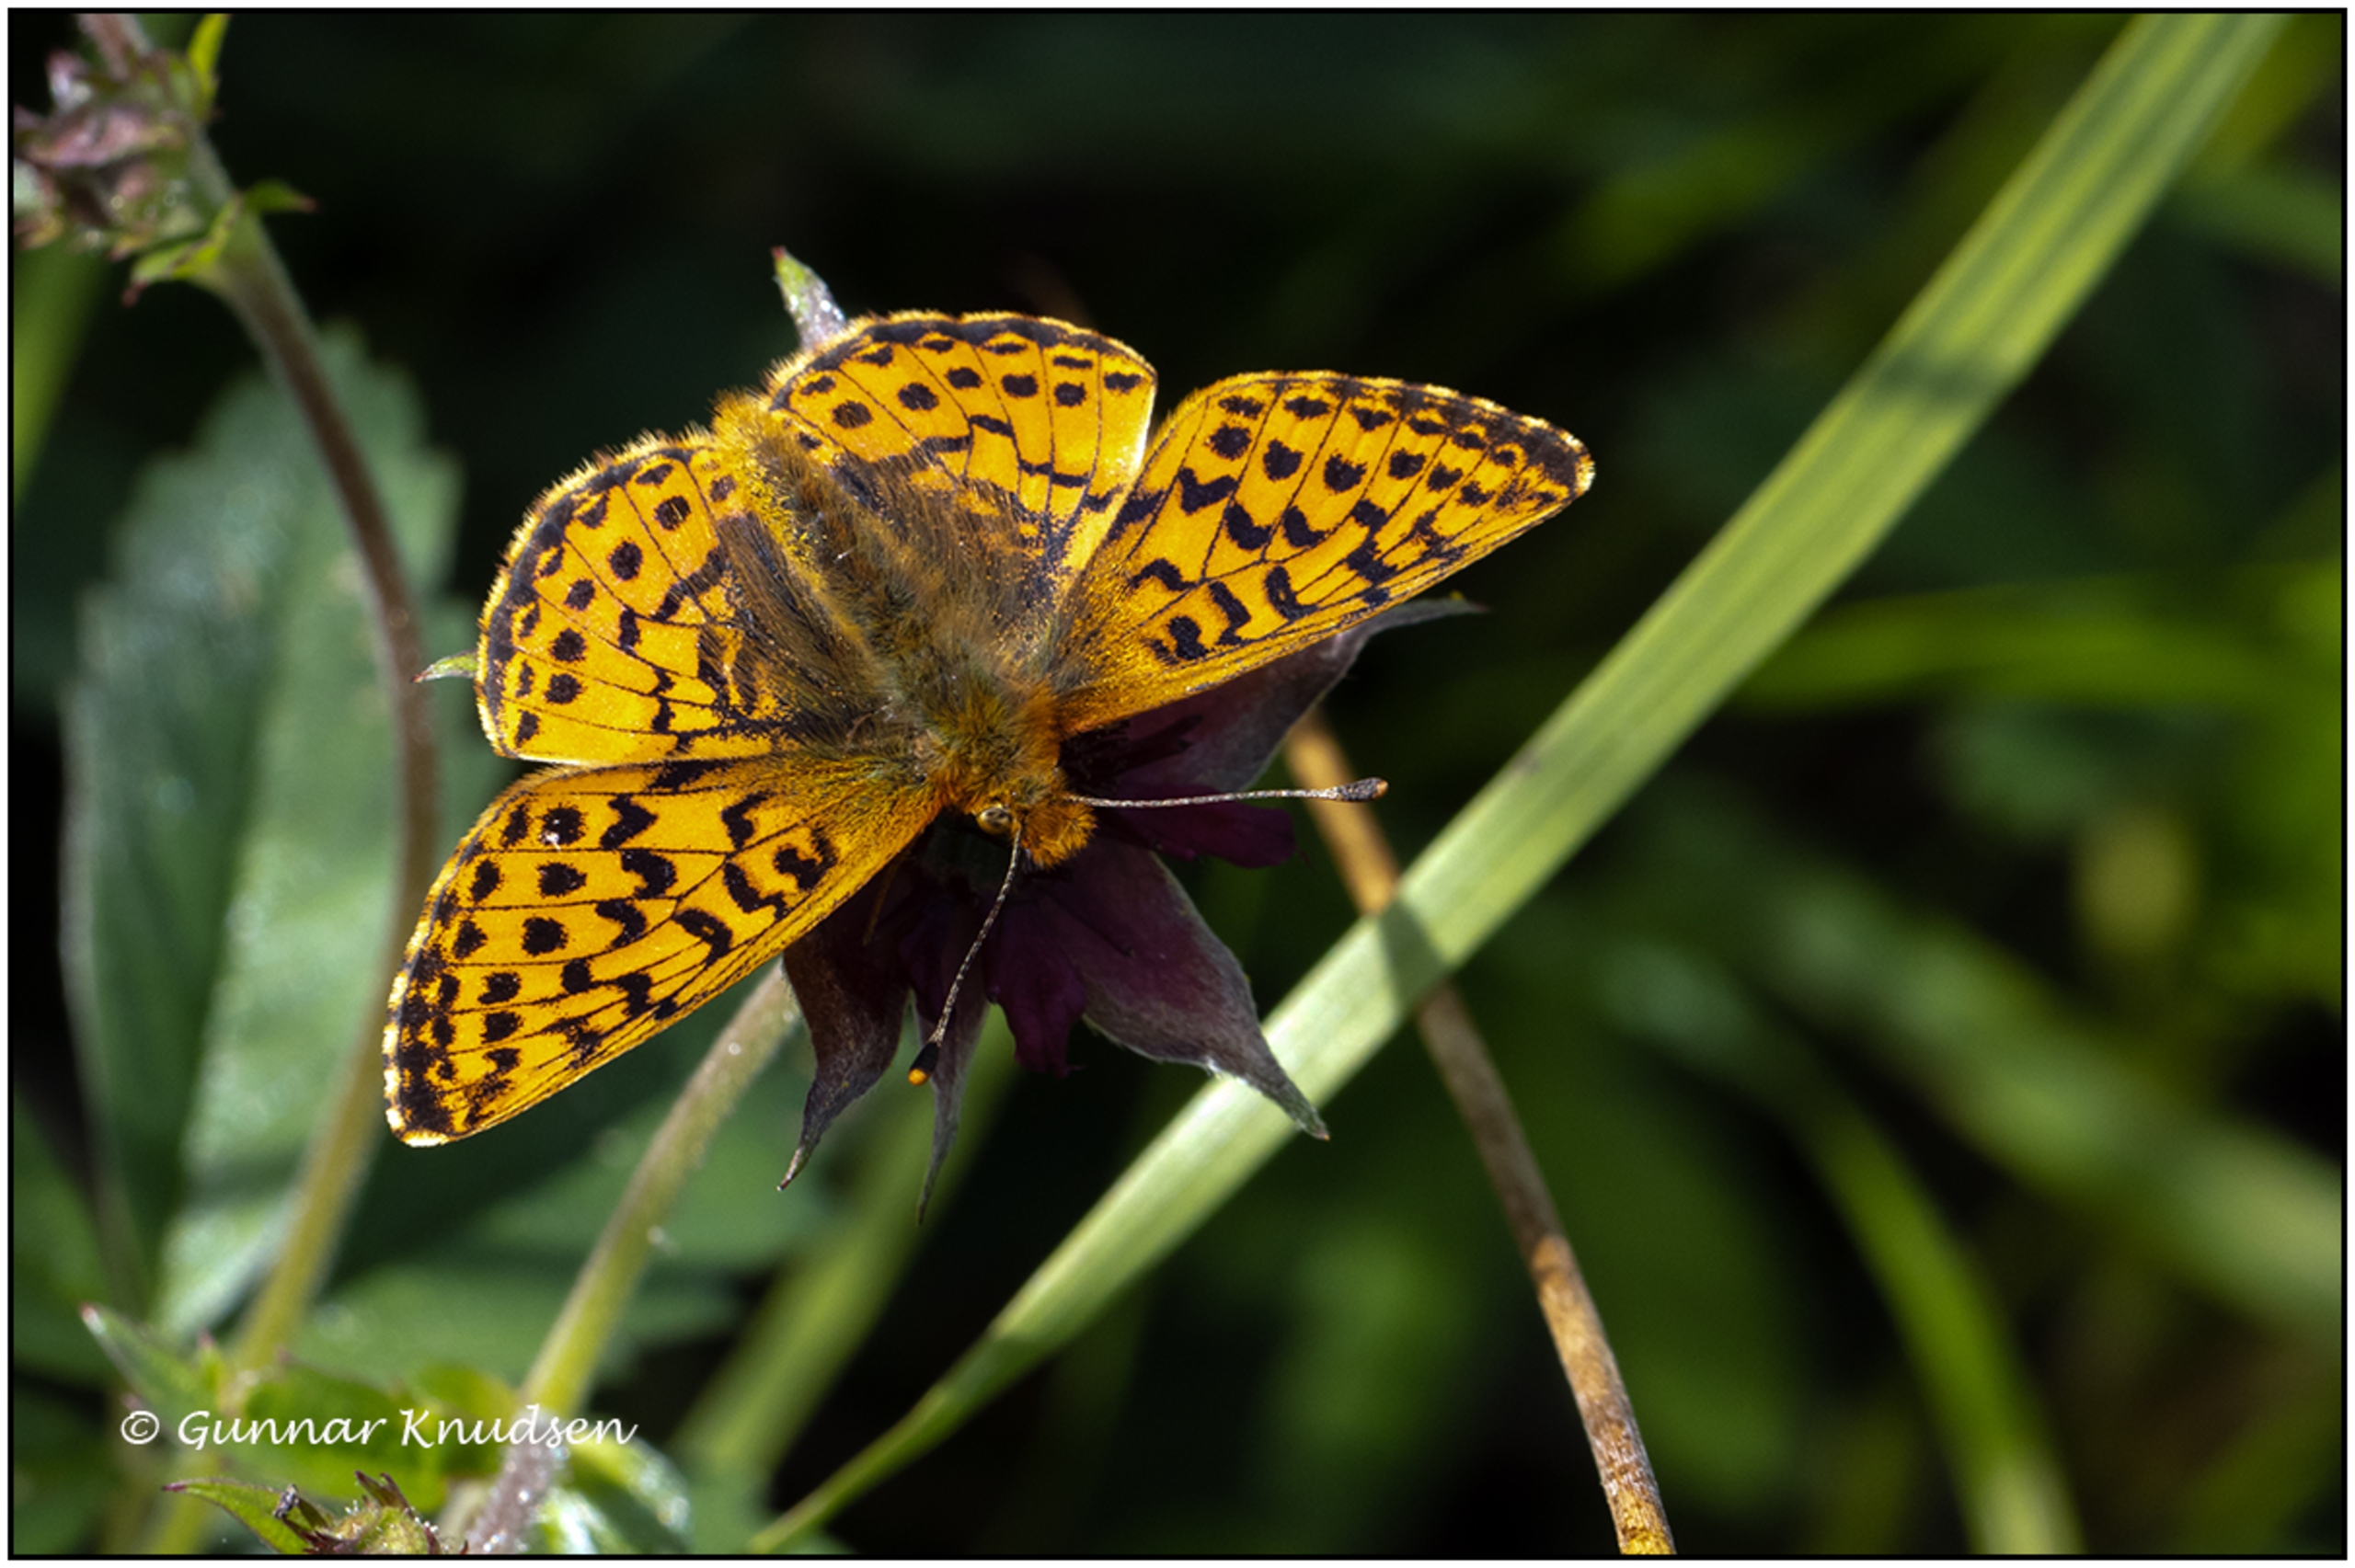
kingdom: Animalia
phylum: Arthropoda
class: Insecta
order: Lepidoptera
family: Nymphalidae
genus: Boloria
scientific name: Boloria aquilonaris
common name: Moseperlemorsommerfugl
